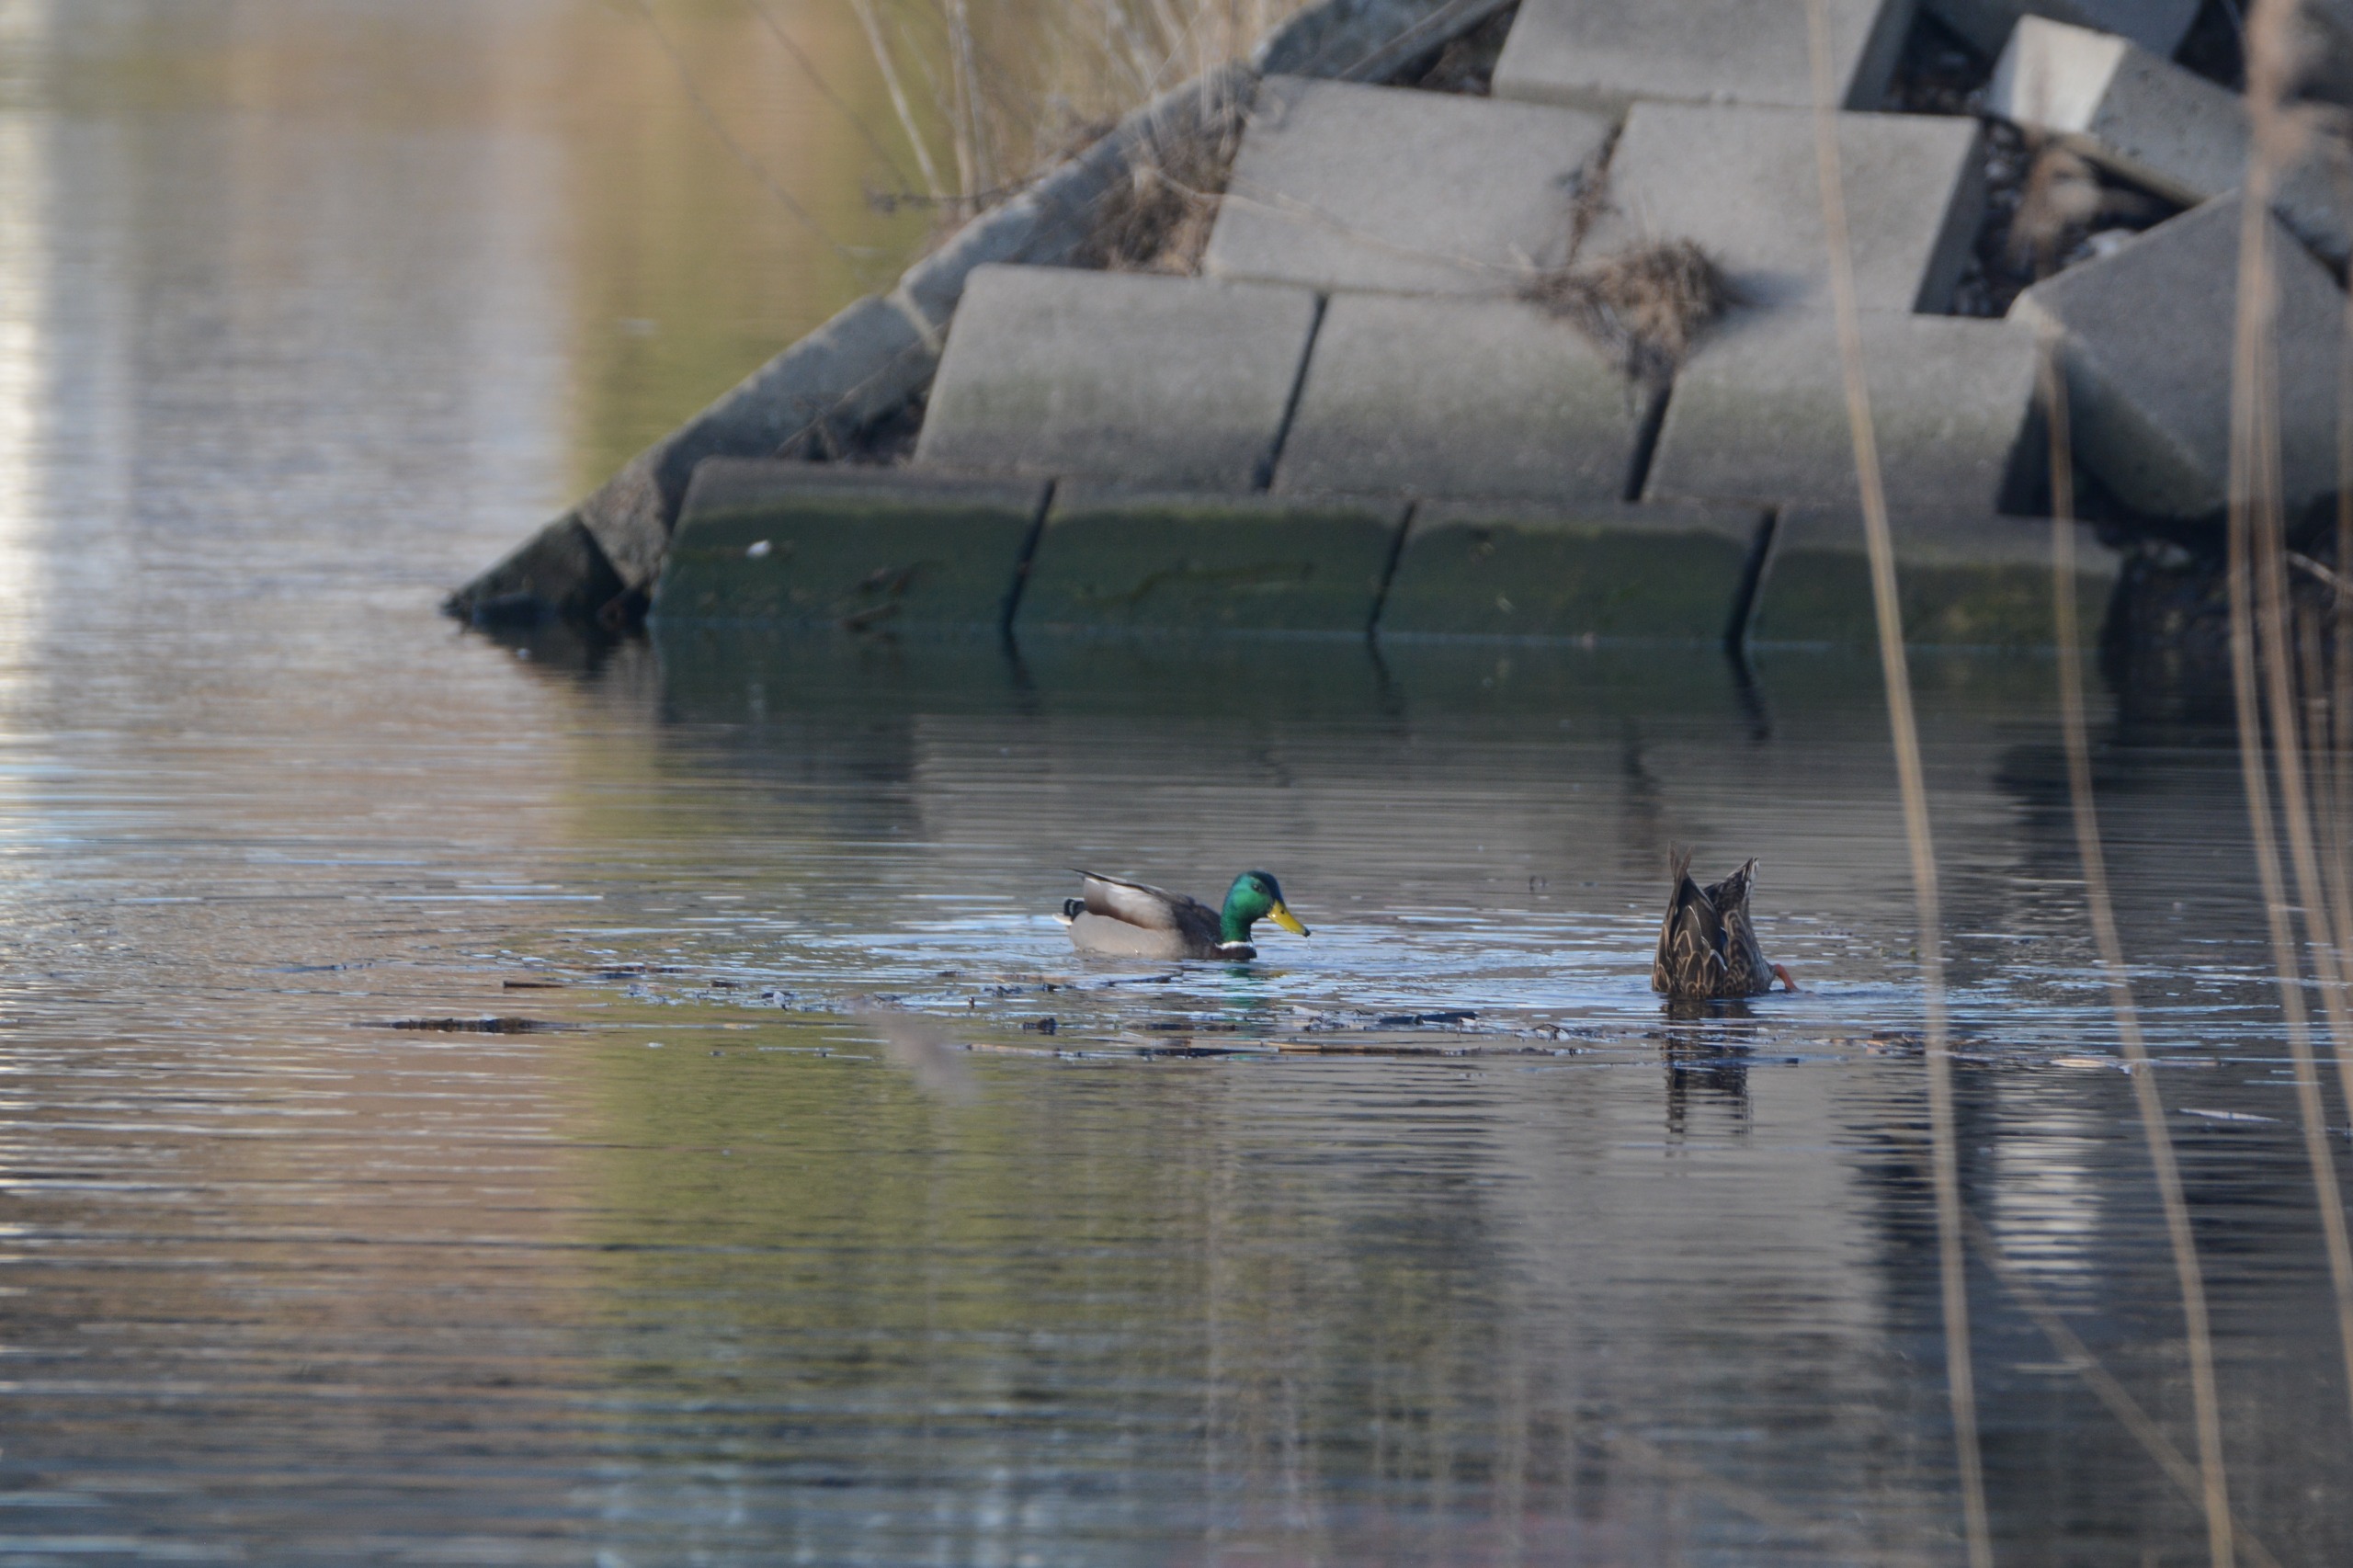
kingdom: Animalia
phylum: Chordata
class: Aves
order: Anseriformes
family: Anatidae
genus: Anas
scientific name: Anas platyrhynchos
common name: Gråand
